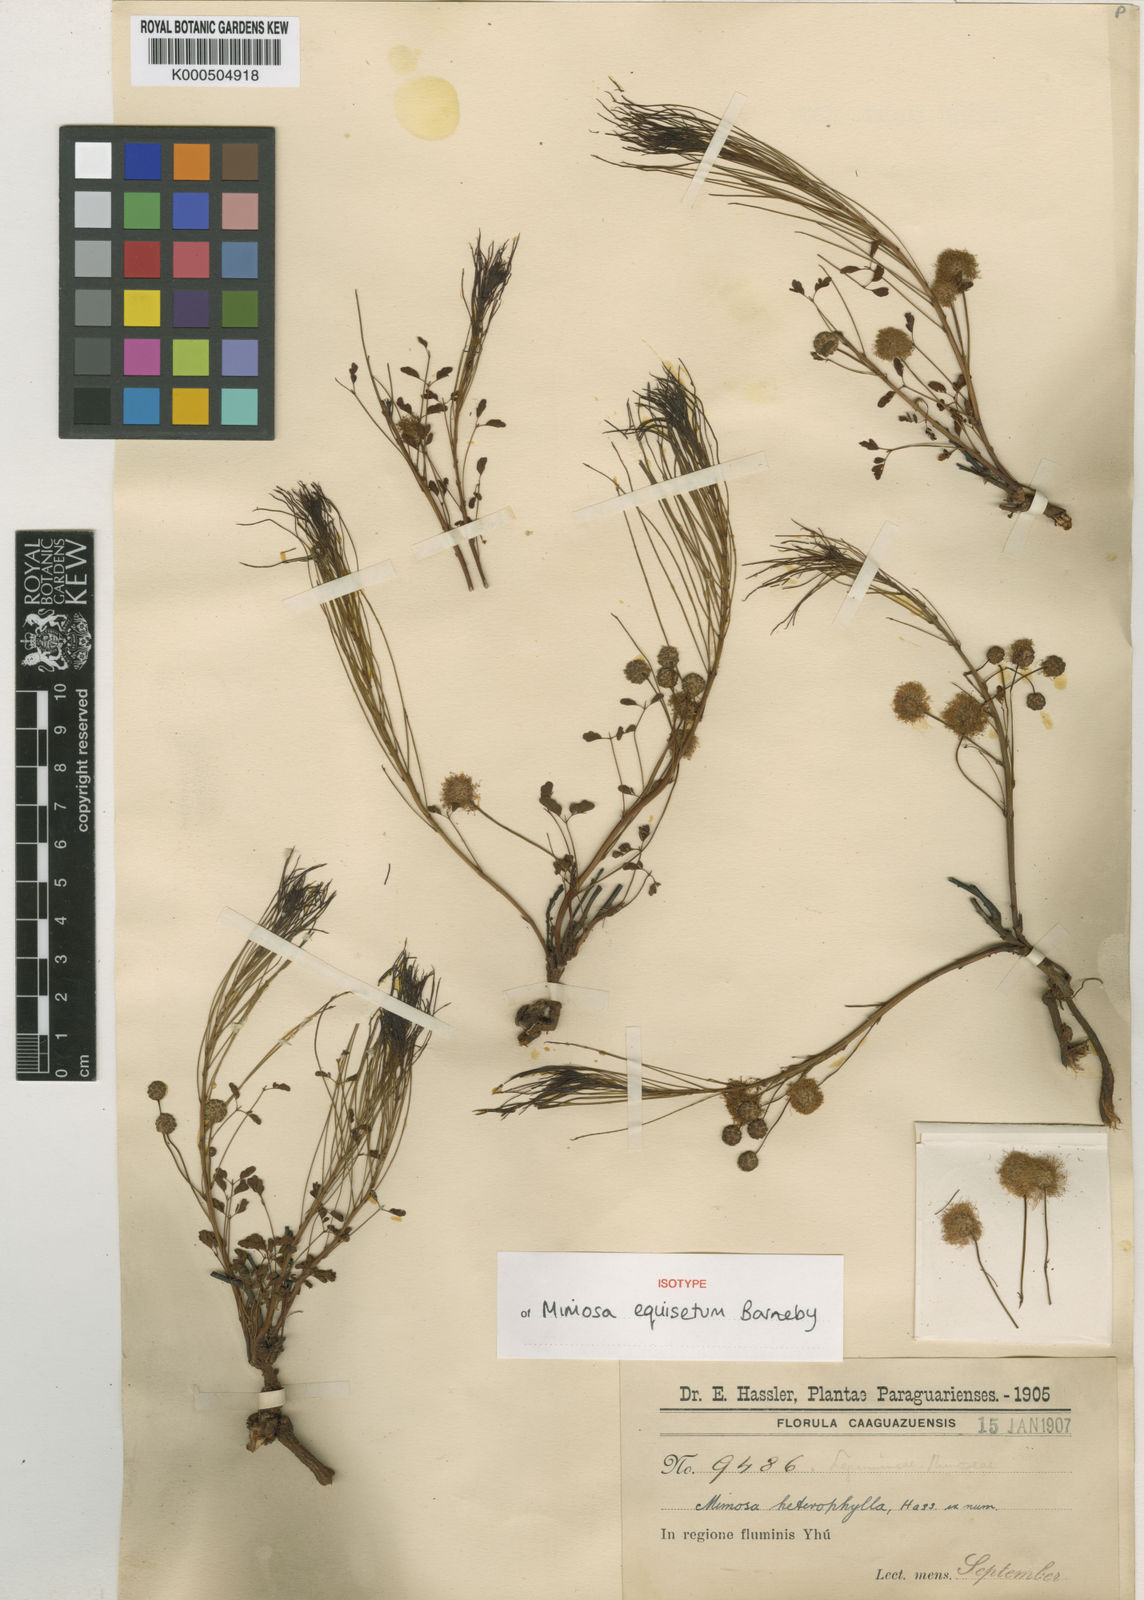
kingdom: Plantae
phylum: Tracheophyta
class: Magnoliopsida
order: Fabales
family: Fabaceae
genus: Mimosa
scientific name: Mimosa equisetum
